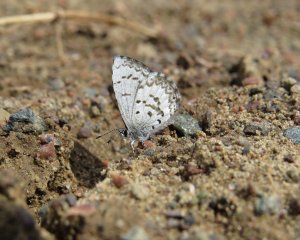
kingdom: Animalia
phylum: Arthropoda
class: Insecta
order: Lepidoptera
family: Lycaenidae
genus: Celastrina
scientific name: Celastrina lucia
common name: Northern Spring Azure
